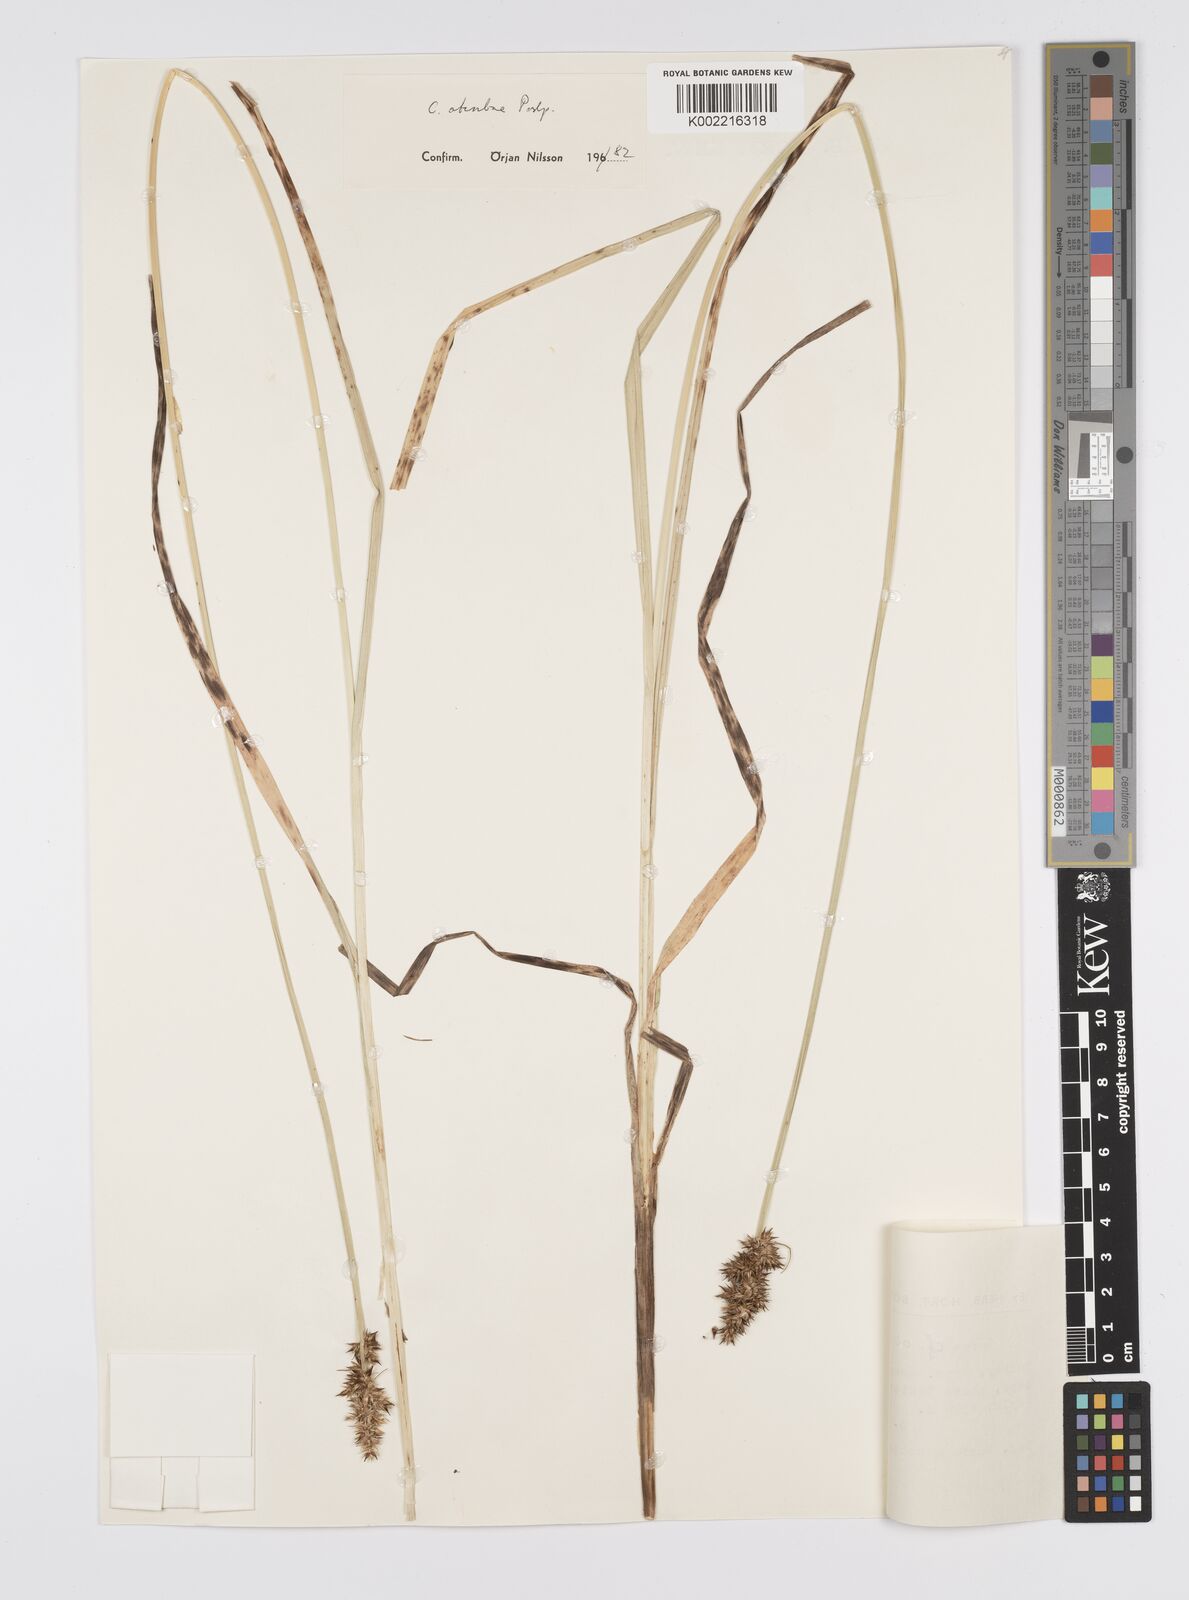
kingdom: Plantae
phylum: Tracheophyta
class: Liliopsida
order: Poales
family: Cyperaceae
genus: Carex
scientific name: Carex otrubae
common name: False fox-sedge
